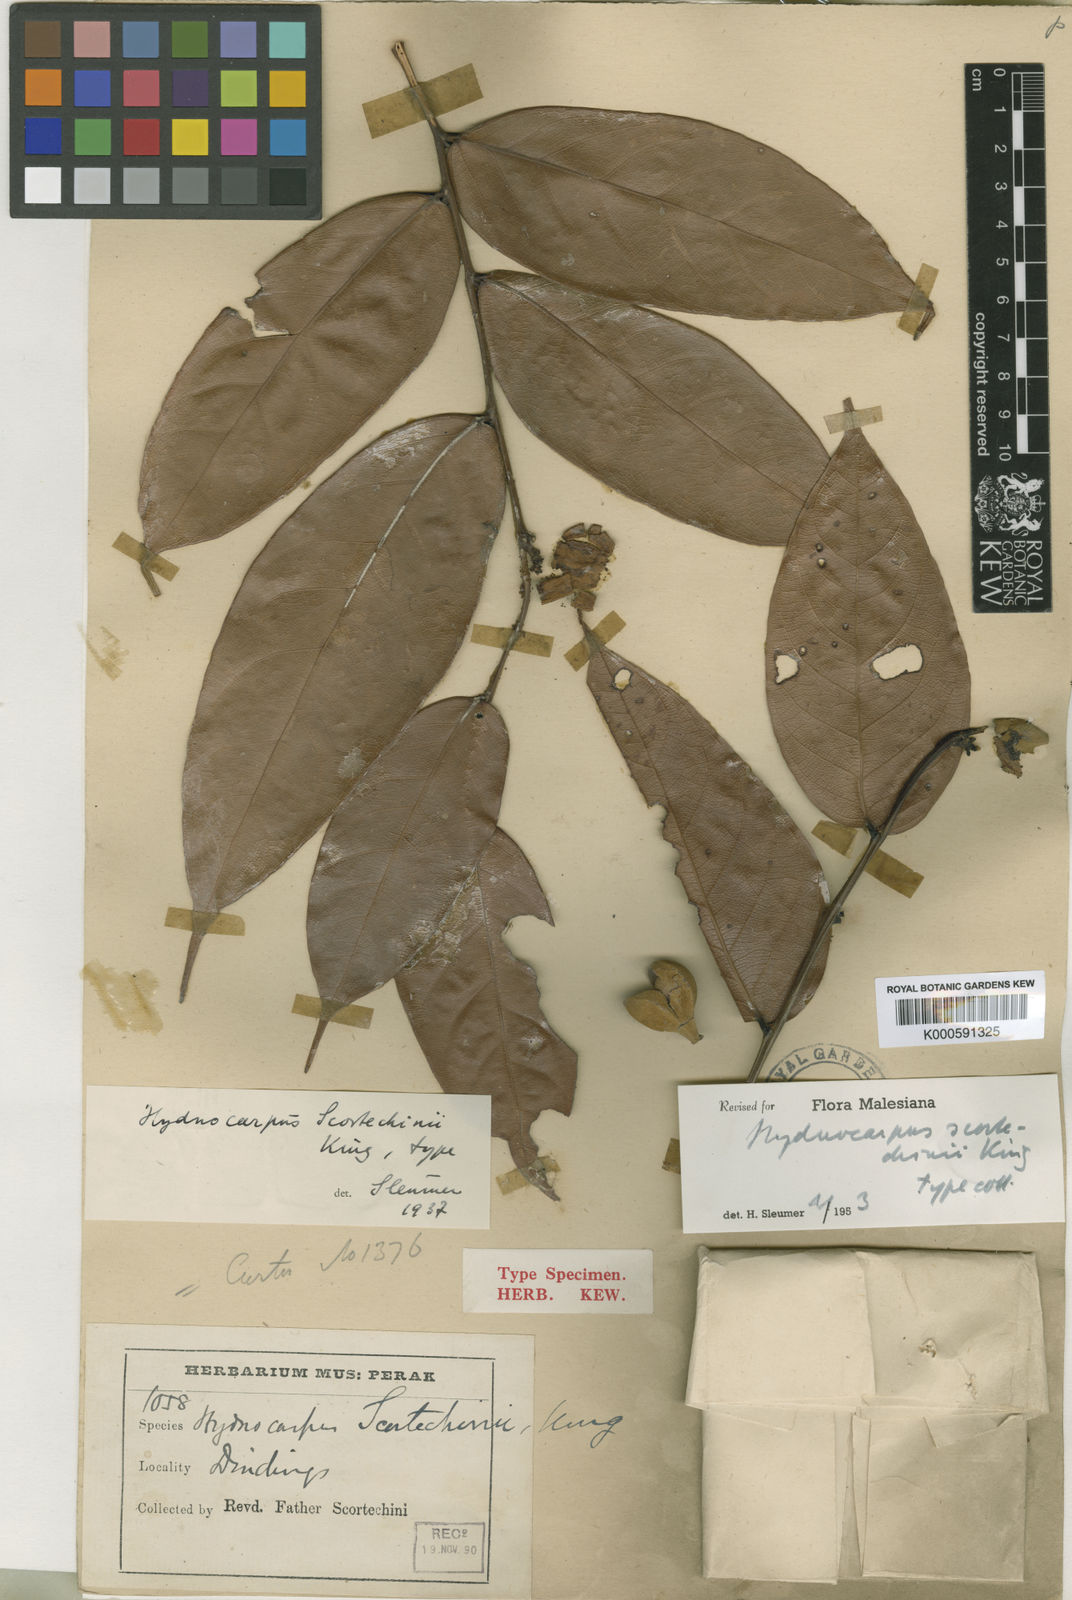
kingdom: Plantae
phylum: Tracheophyta
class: Magnoliopsida
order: Malpighiales
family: Achariaceae
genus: Hydnocarpus
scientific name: Hydnocarpus scortechinii
